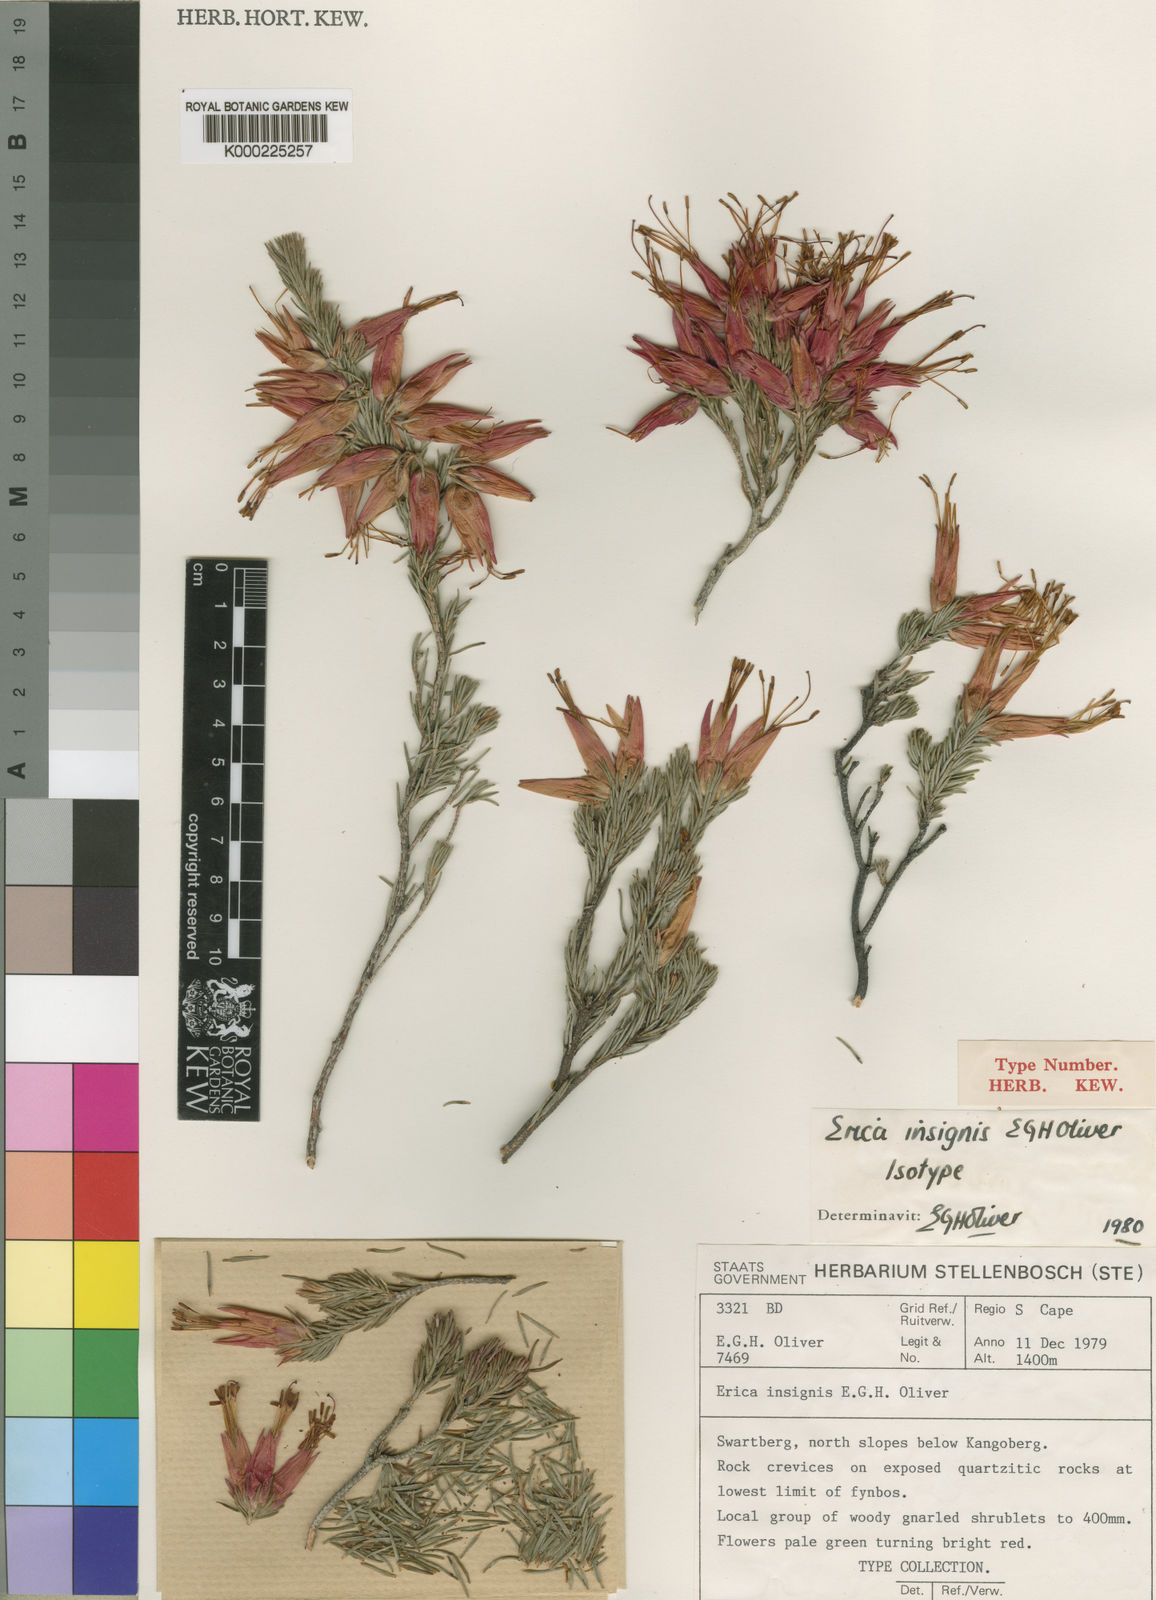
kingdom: Plantae
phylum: Tracheophyta
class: Magnoliopsida
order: Ericales
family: Ericaceae
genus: Erica
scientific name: Erica insignis
